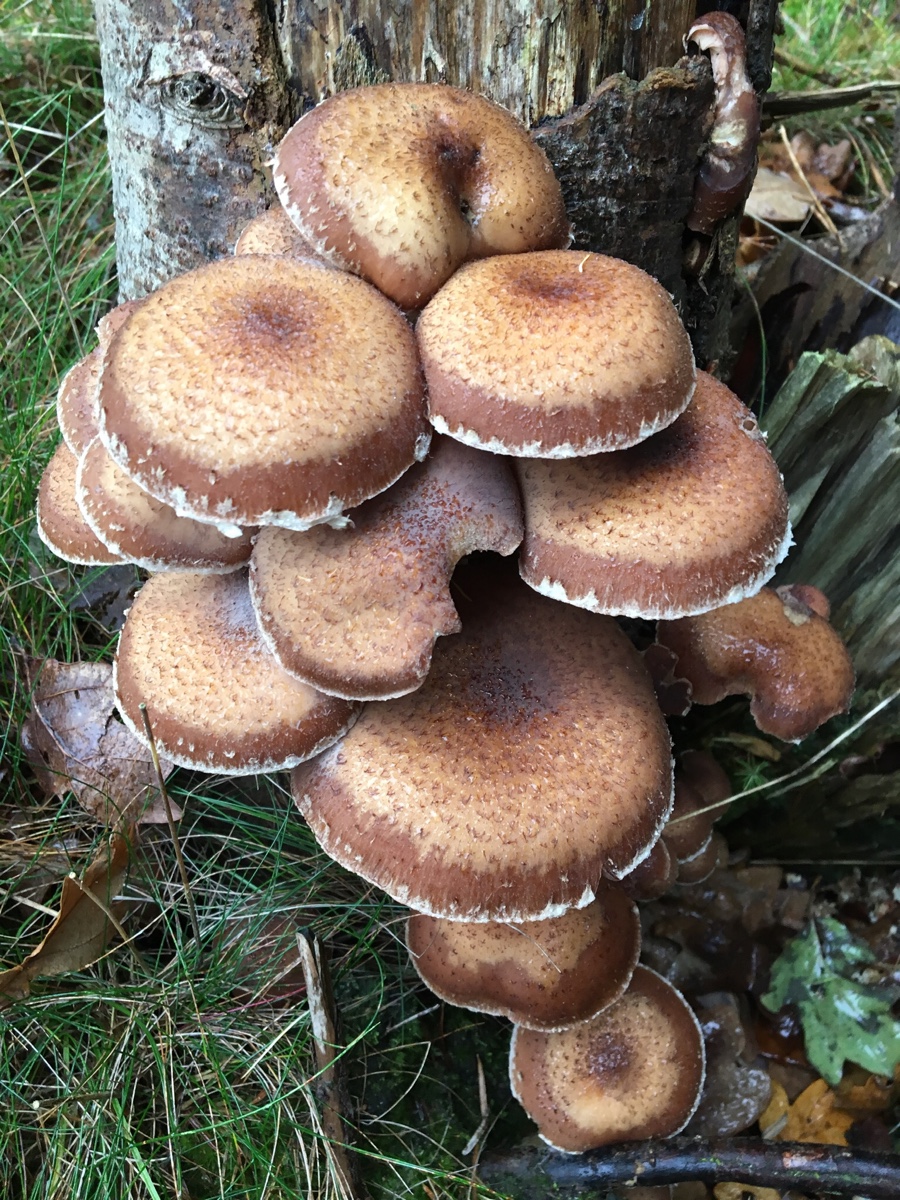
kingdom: Fungi
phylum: Basidiomycota
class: Agaricomycetes
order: Agaricales
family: Physalacriaceae
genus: Armillaria
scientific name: Armillaria ostoyae
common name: mørk honningsvamp
